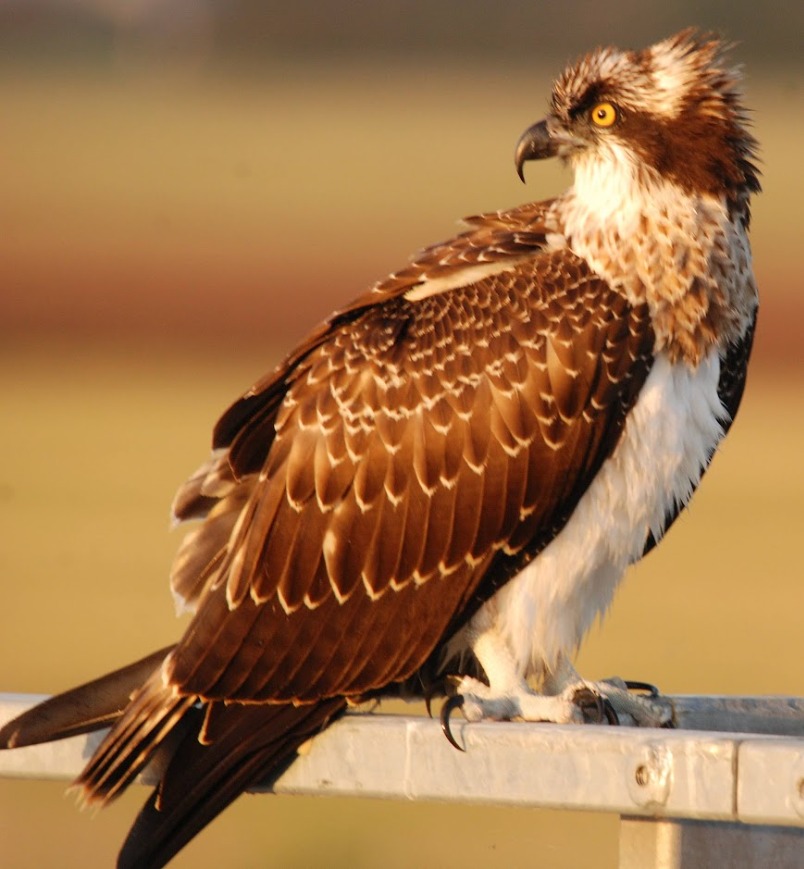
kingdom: Animalia
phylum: Chordata
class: Aves
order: Accipitriformes
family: Pandionidae
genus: Pandion
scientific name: Pandion haliaetus
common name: Fiskeørn
